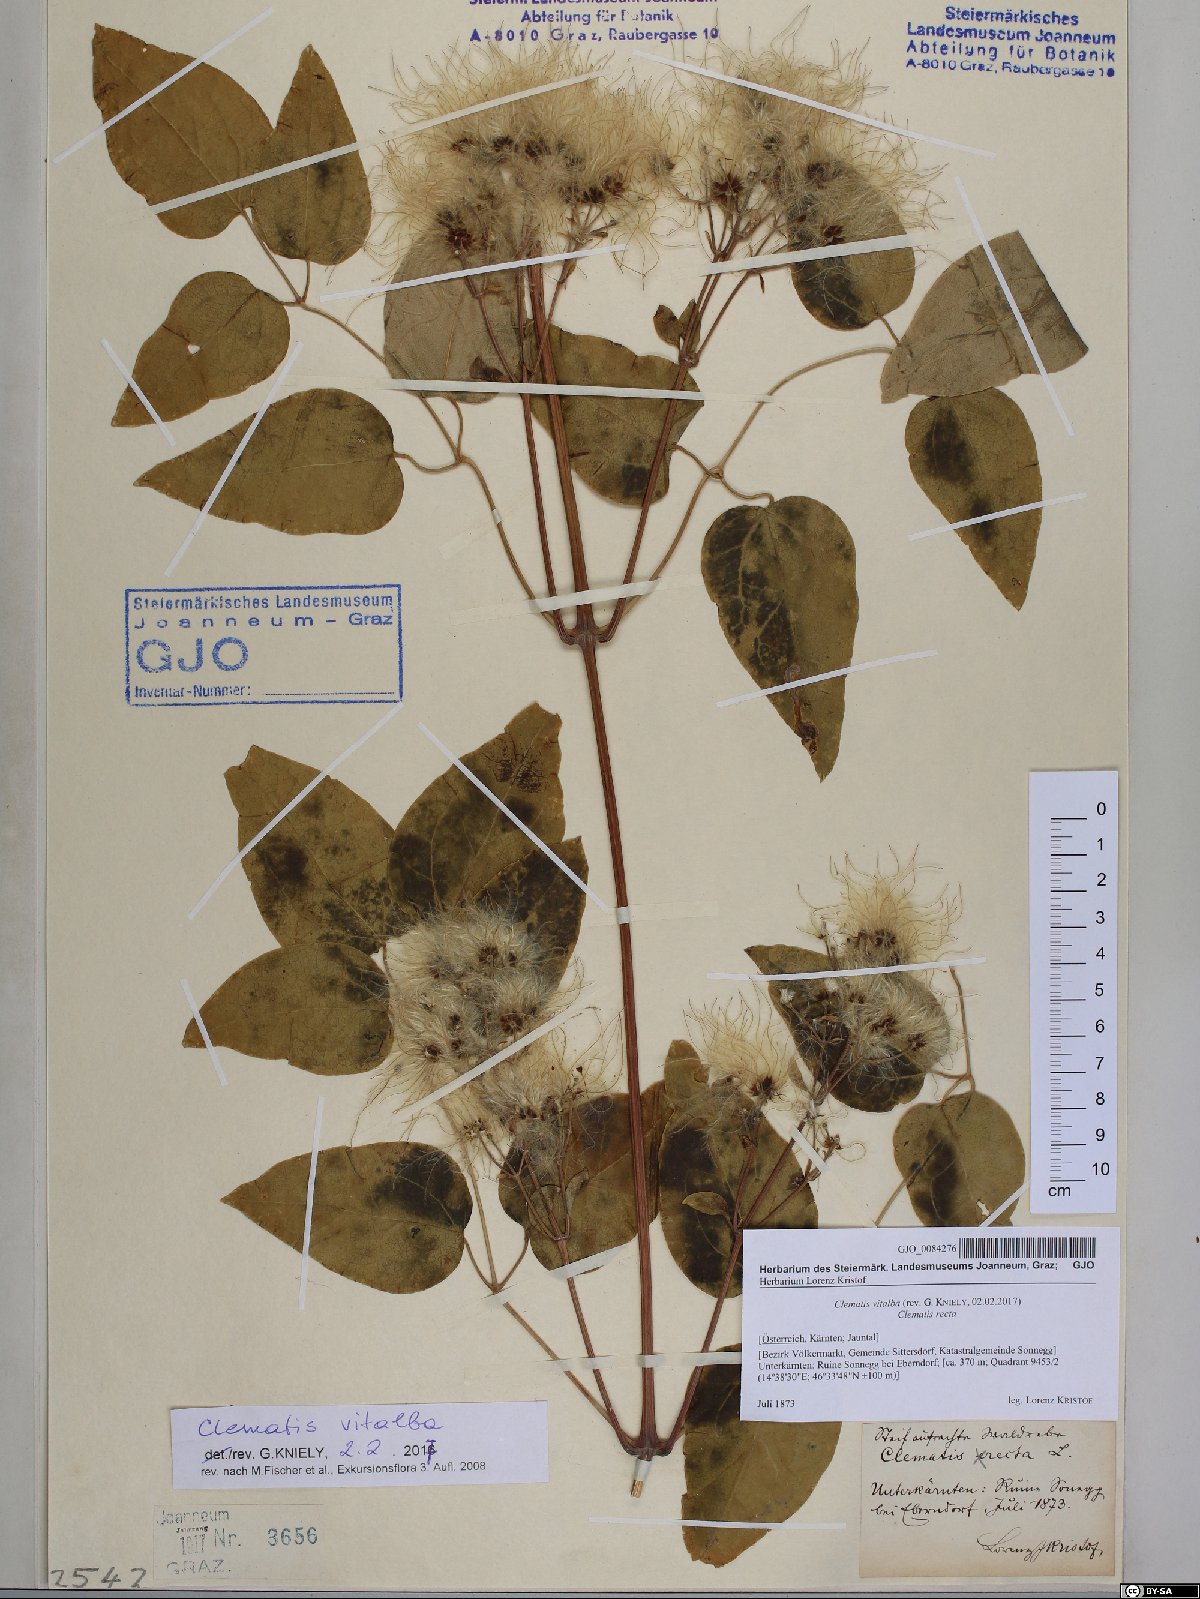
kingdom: Plantae
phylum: Tracheophyta
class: Magnoliopsida
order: Ranunculales
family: Ranunculaceae
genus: Clematis
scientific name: Clematis vitalba
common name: Evergreen clematis
